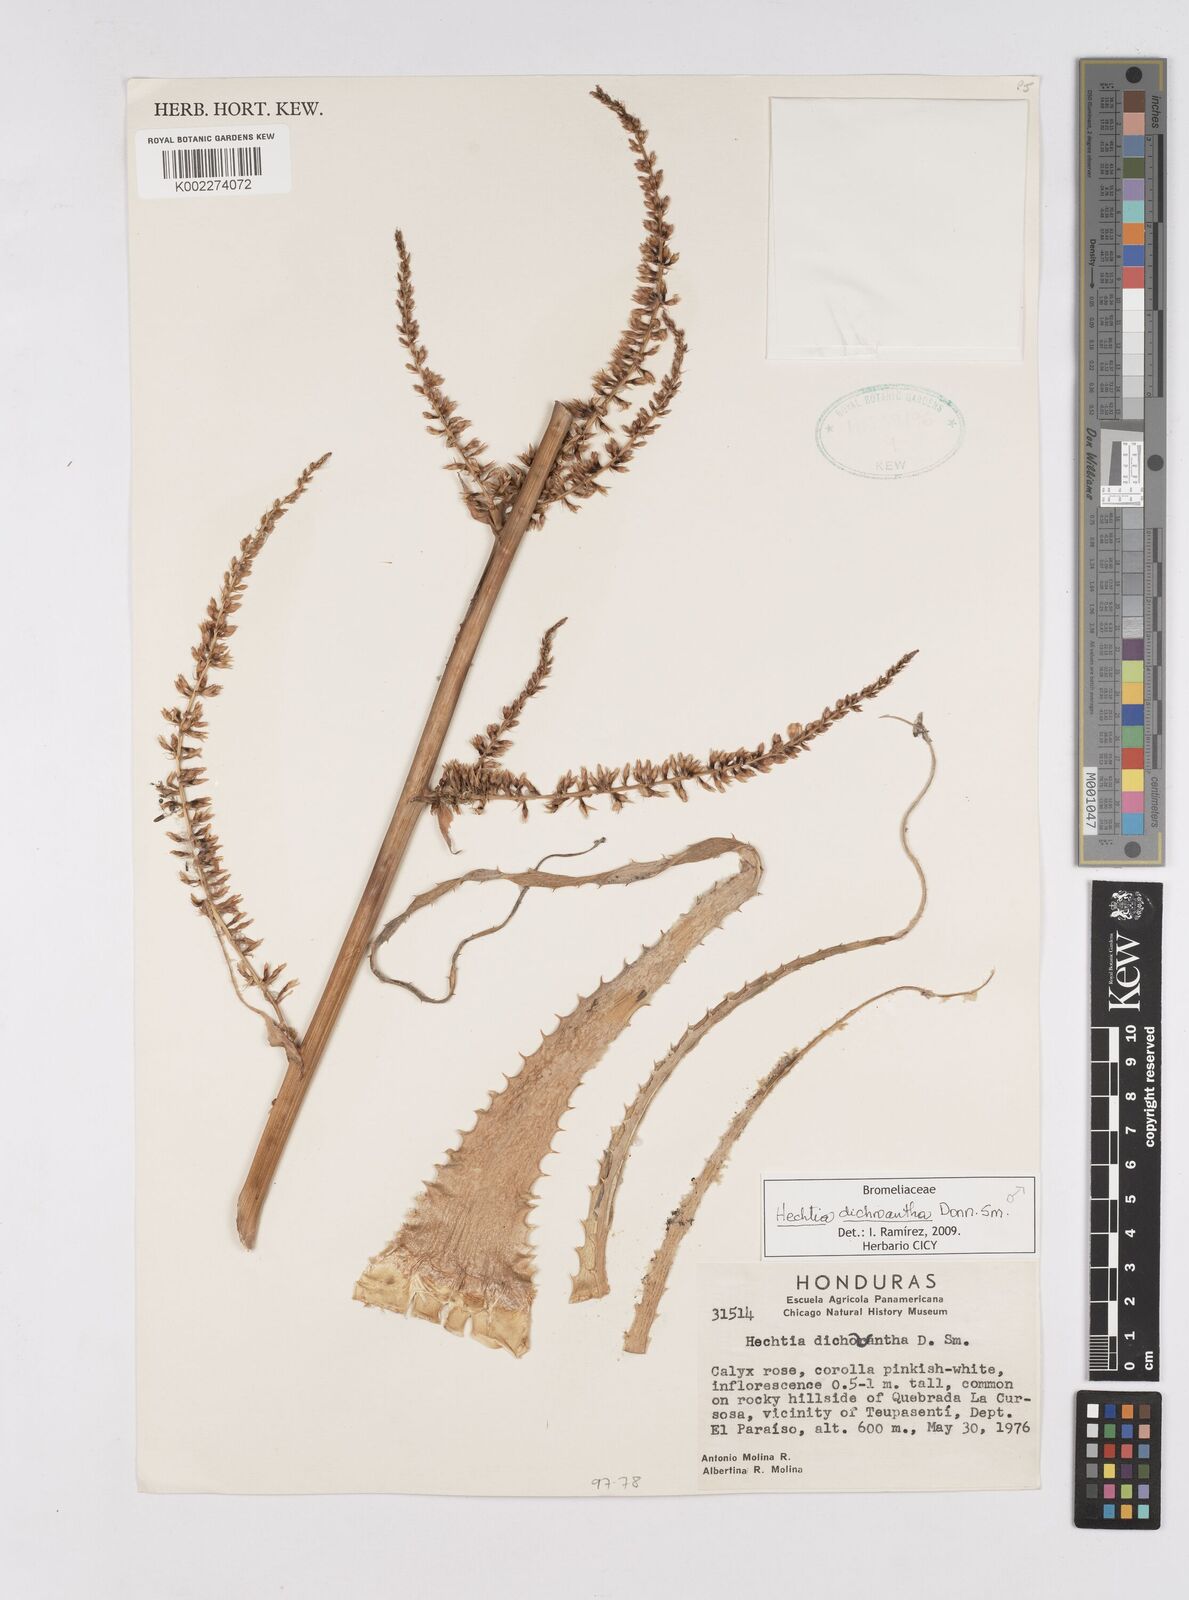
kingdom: Plantae
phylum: Tracheophyta
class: Liliopsida
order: Poales
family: Bromeliaceae
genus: Hechtia
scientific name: Hechtia dichroantha
